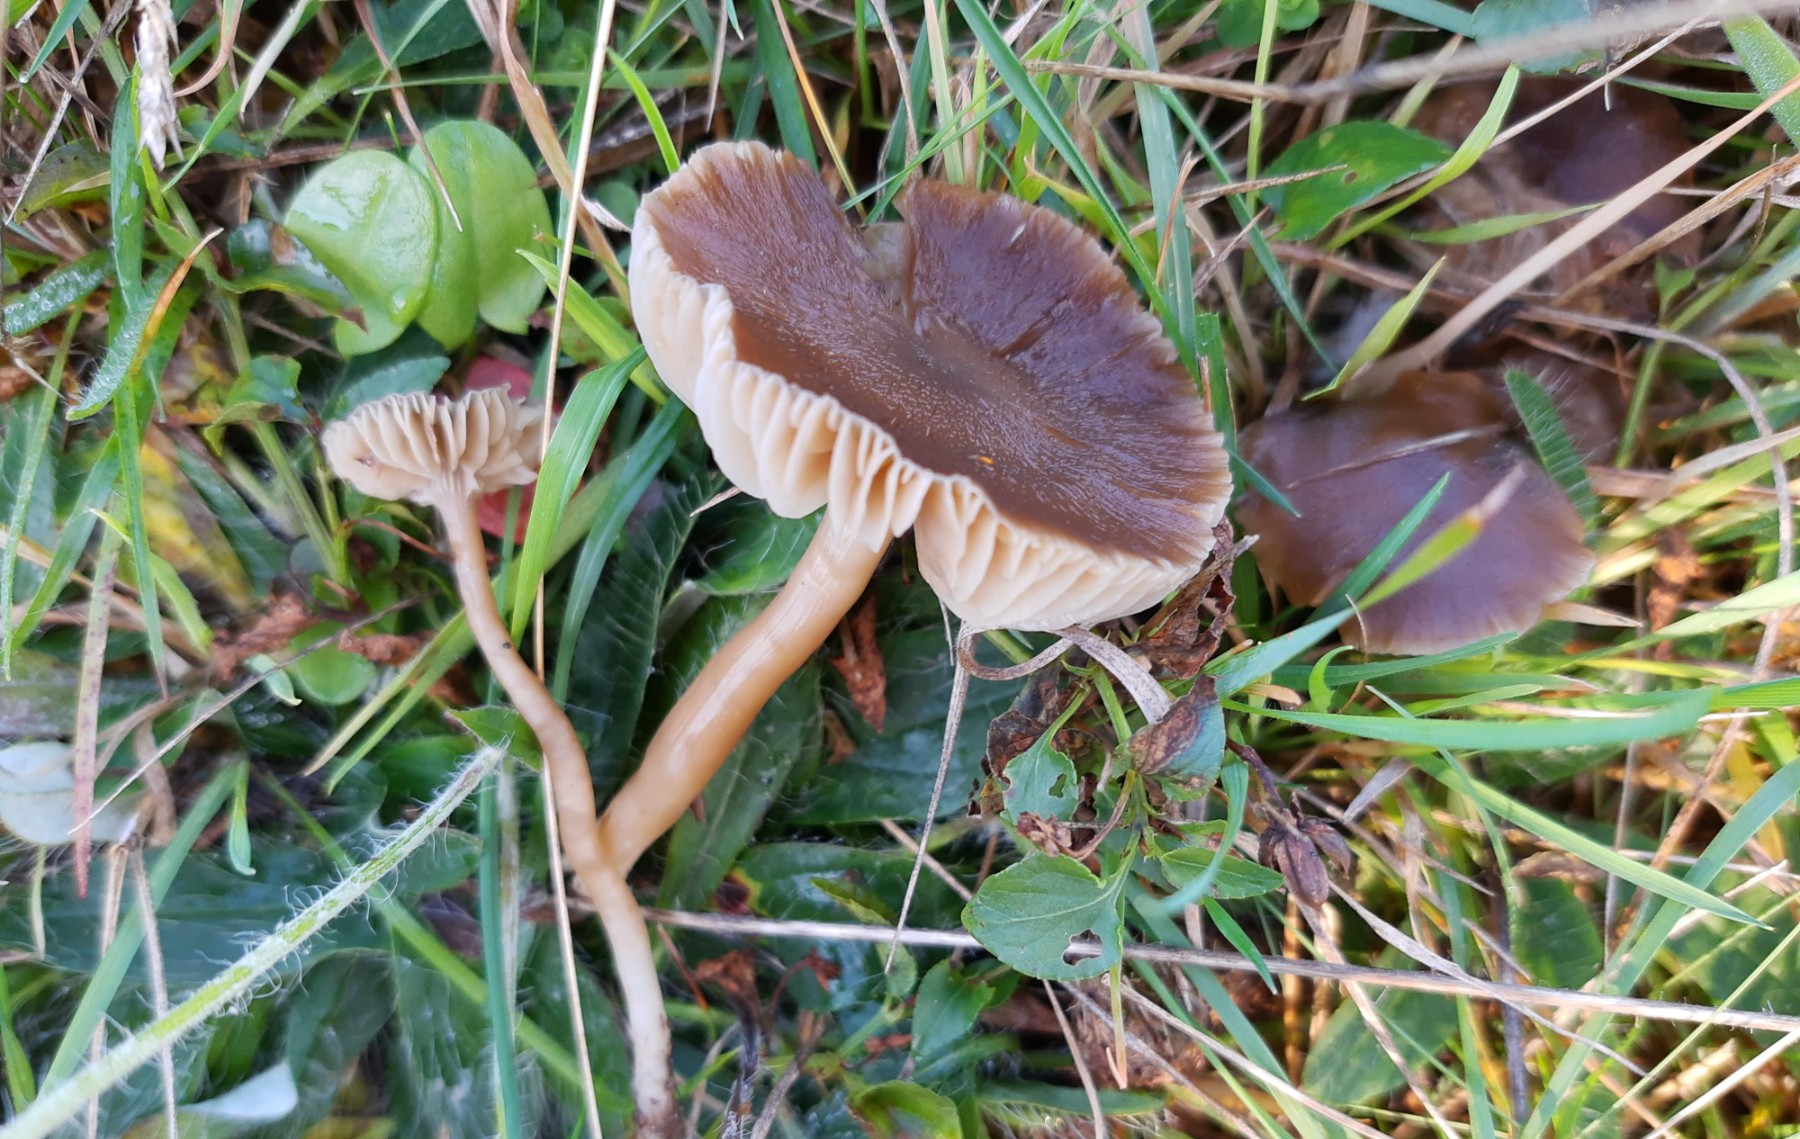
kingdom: Fungi
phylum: Basidiomycota
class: Agaricomycetes
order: Agaricales
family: Hygrophoraceae
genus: Neohygrocybe
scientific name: Neohygrocybe nitrata
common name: stinkende vokshat
